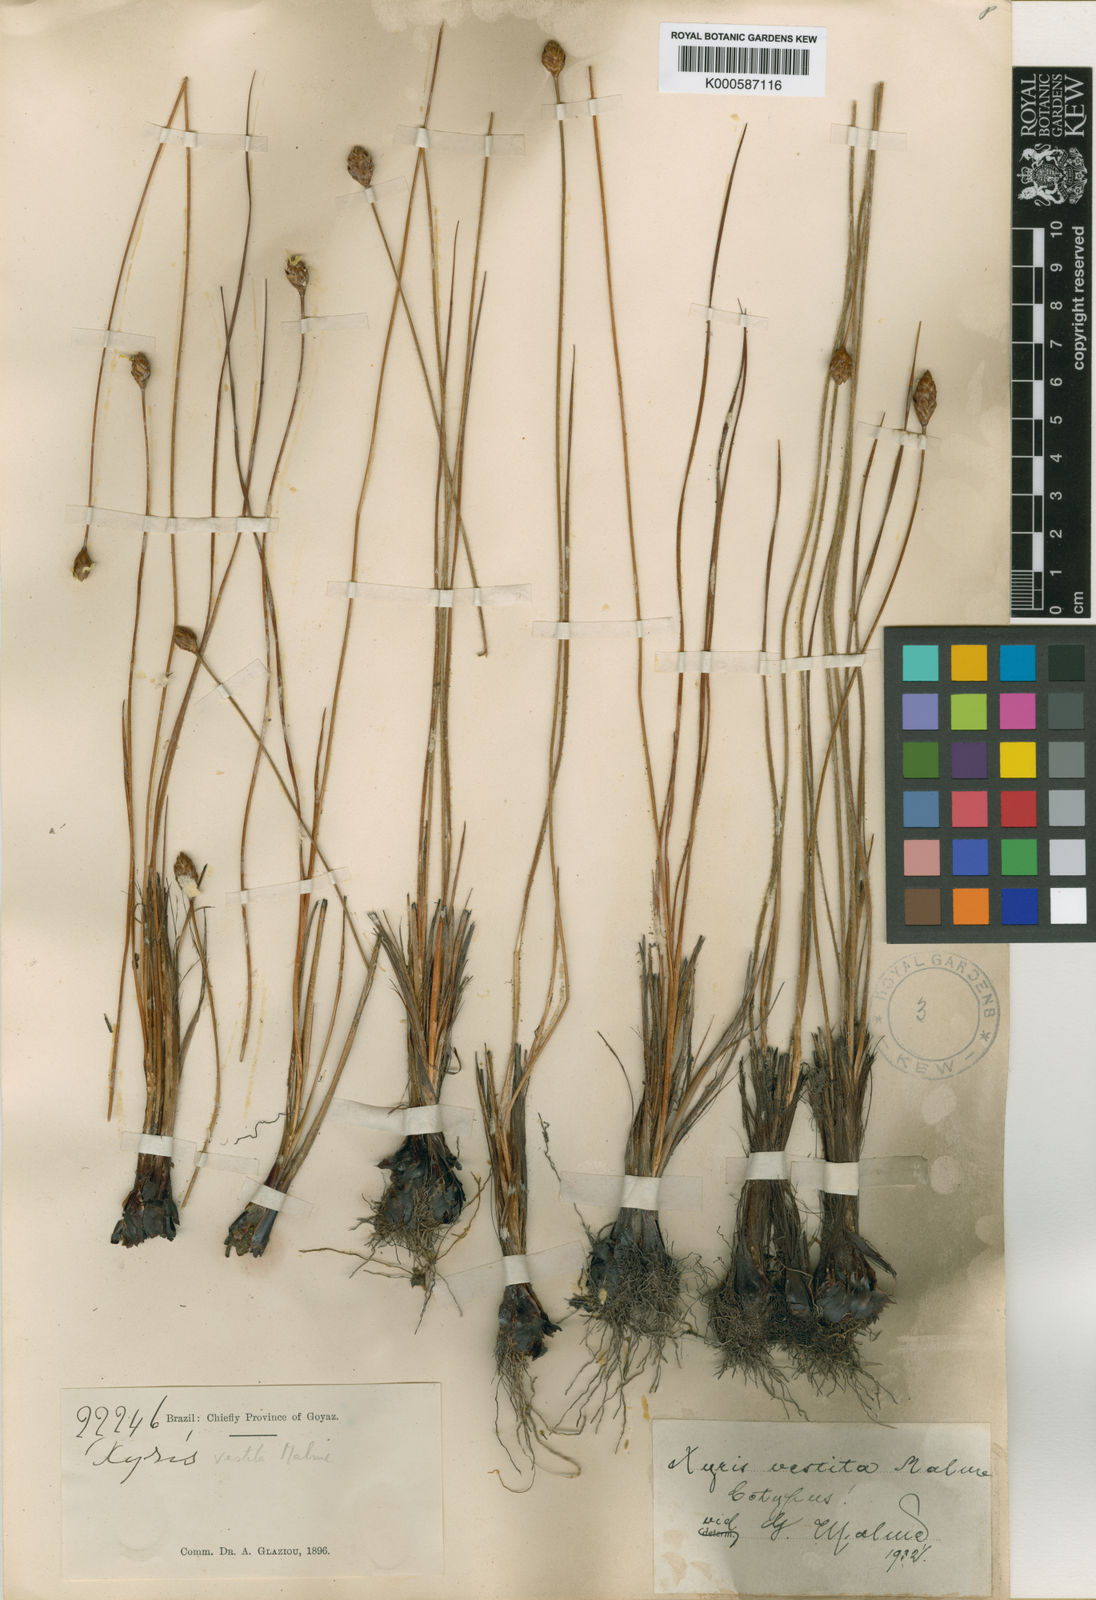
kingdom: Plantae
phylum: Tracheophyta
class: Liliopsida
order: Poales
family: Xyridaceae
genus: Xyris
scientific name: Xyris vestita
